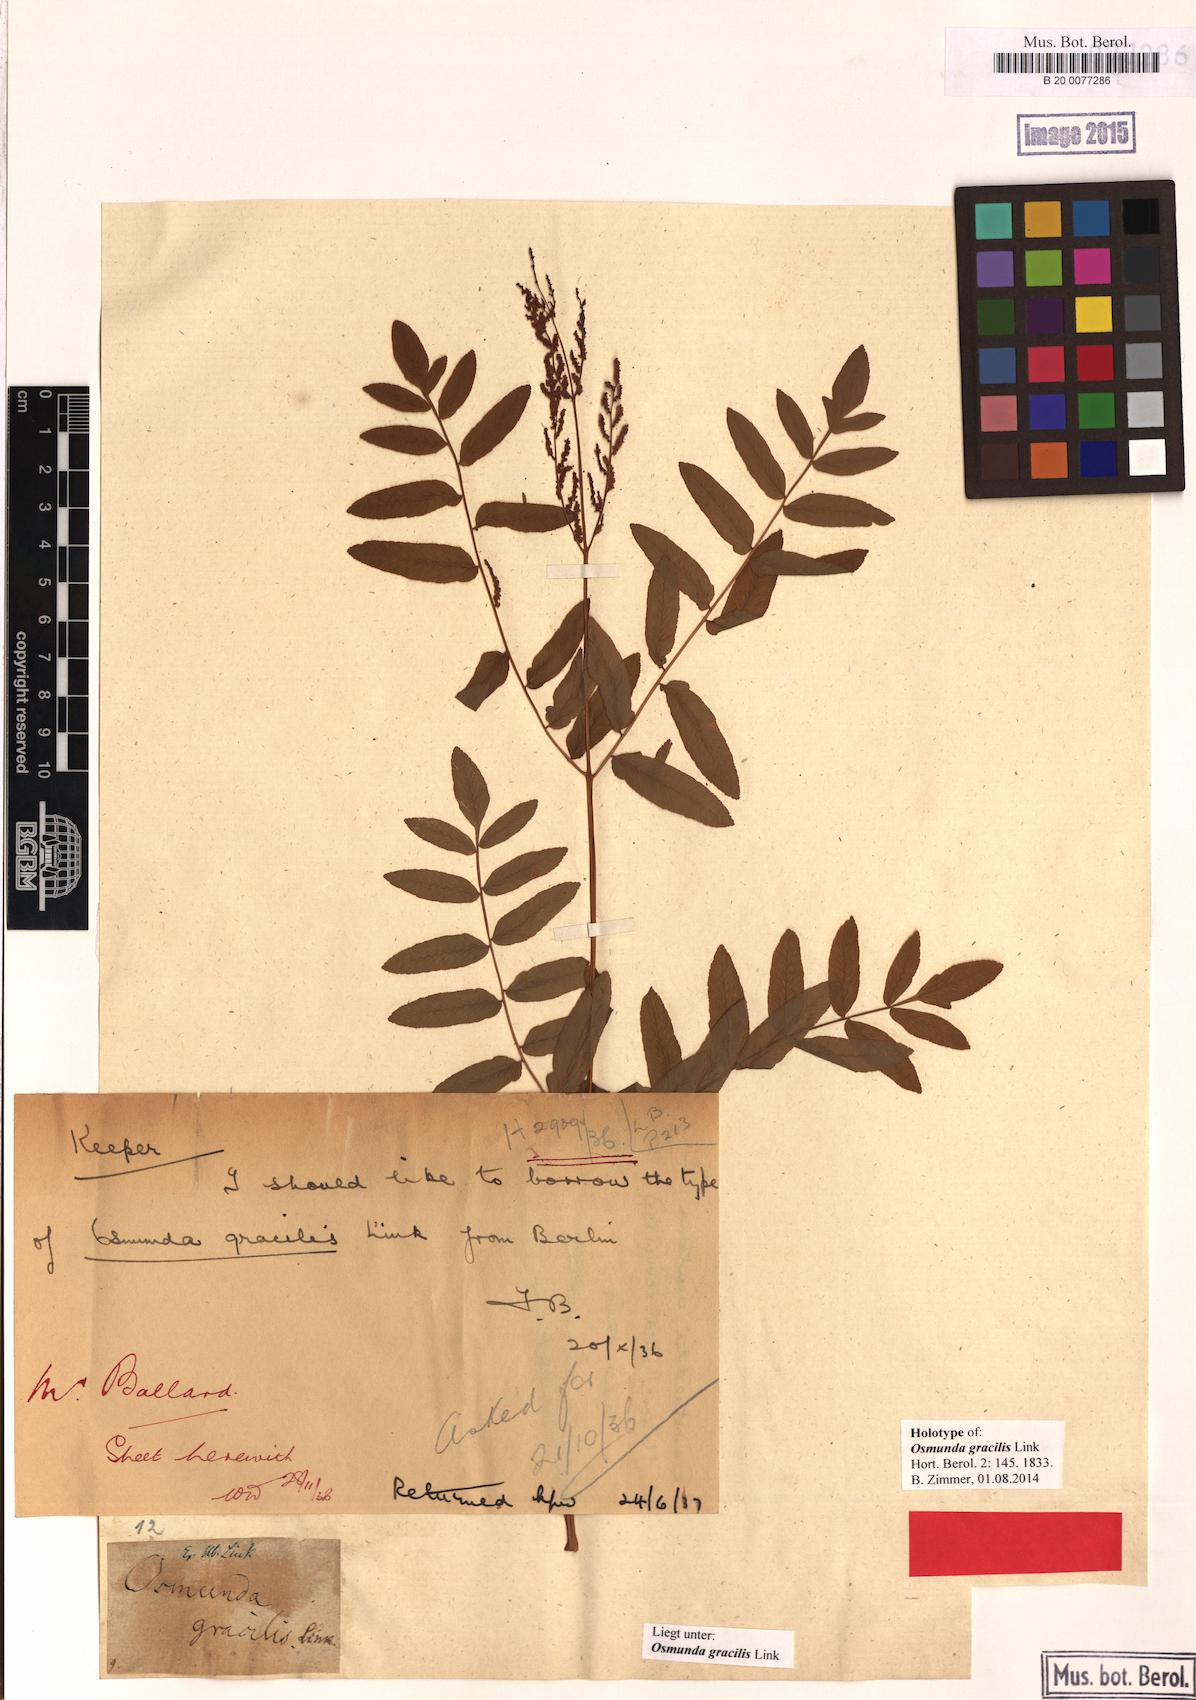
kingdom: Plantae
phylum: Tracheophyta
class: Polypodiopsida
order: Osmundales
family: Osmundaceae
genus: Osmunda
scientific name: Osmunda spectabilis
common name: American royal fern
